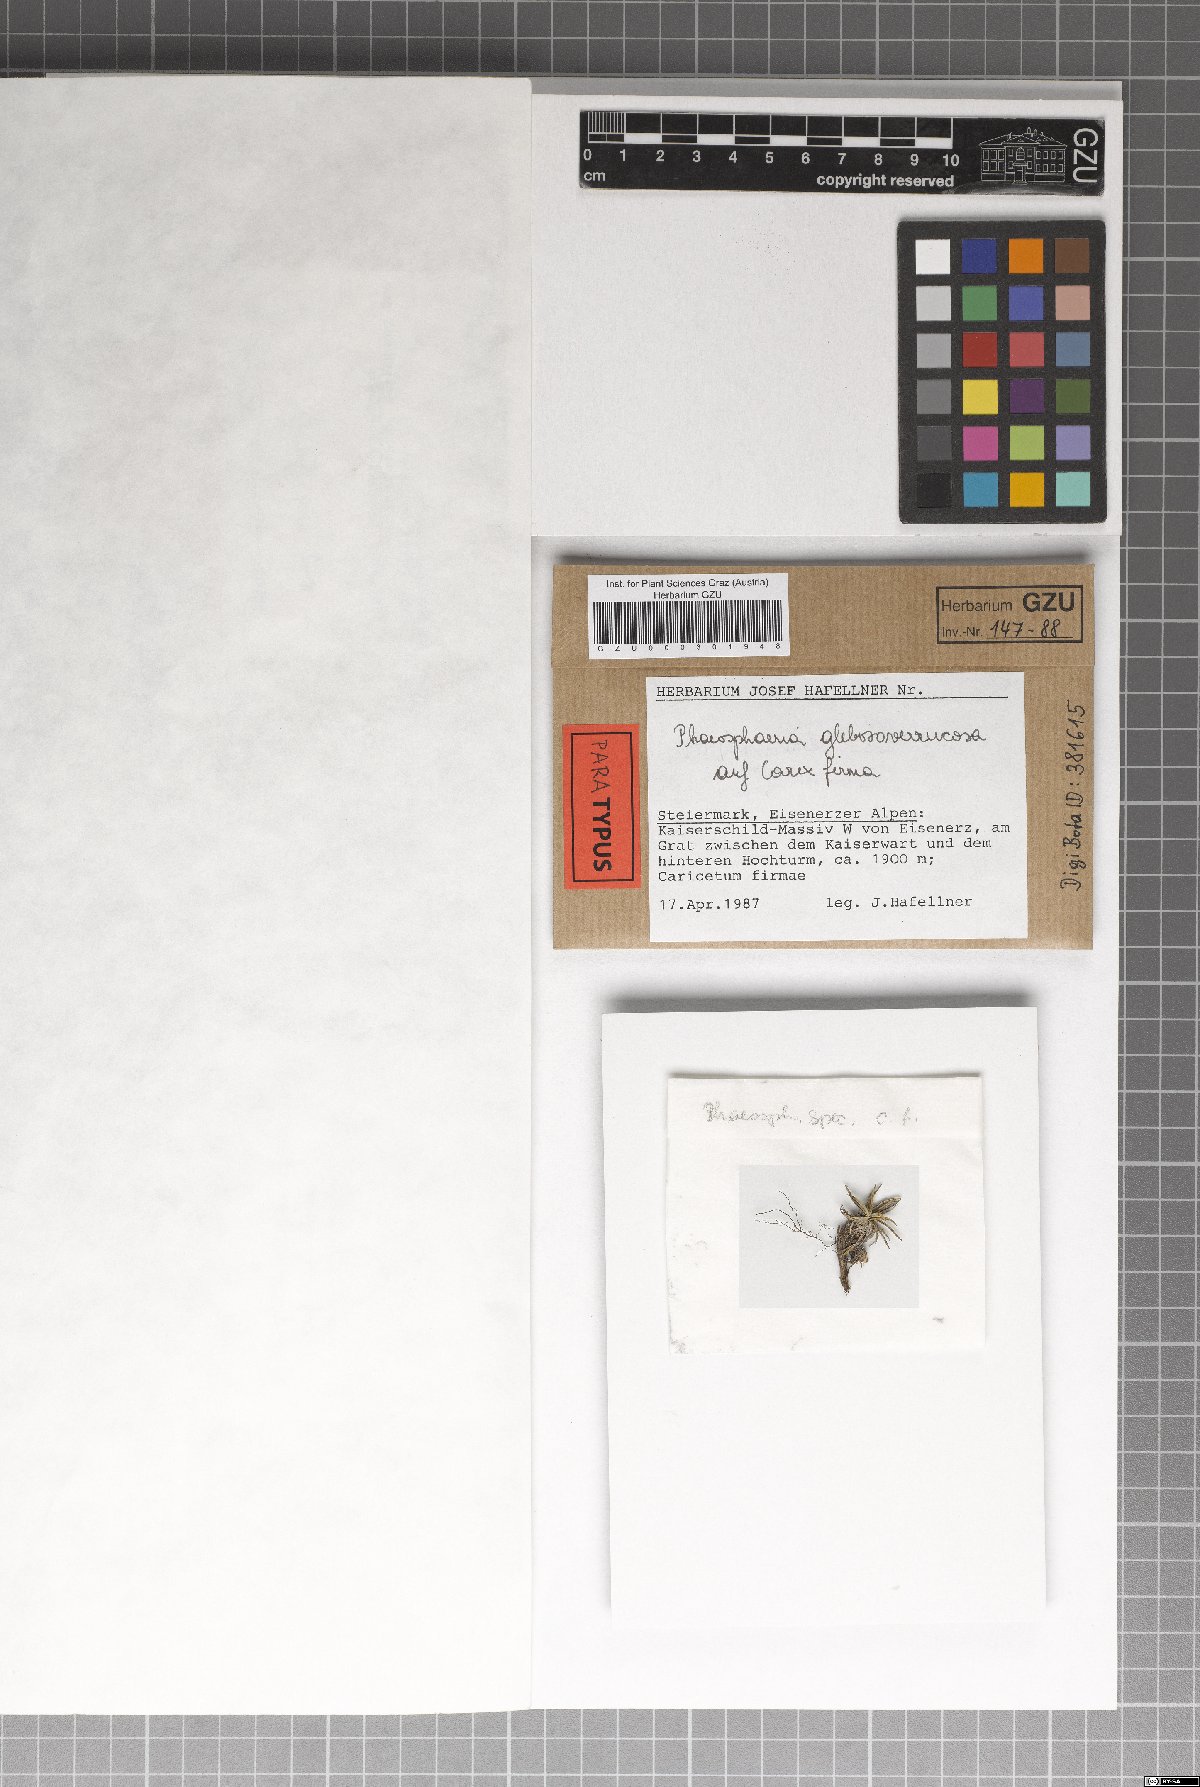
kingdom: Fungi
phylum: Ascomycota
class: Dothideomycetes
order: Pleosporales
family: Phaeosphaeriaceae
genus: Phaeosphaeria
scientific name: Phaeosphaeria glebosoverrucosa
